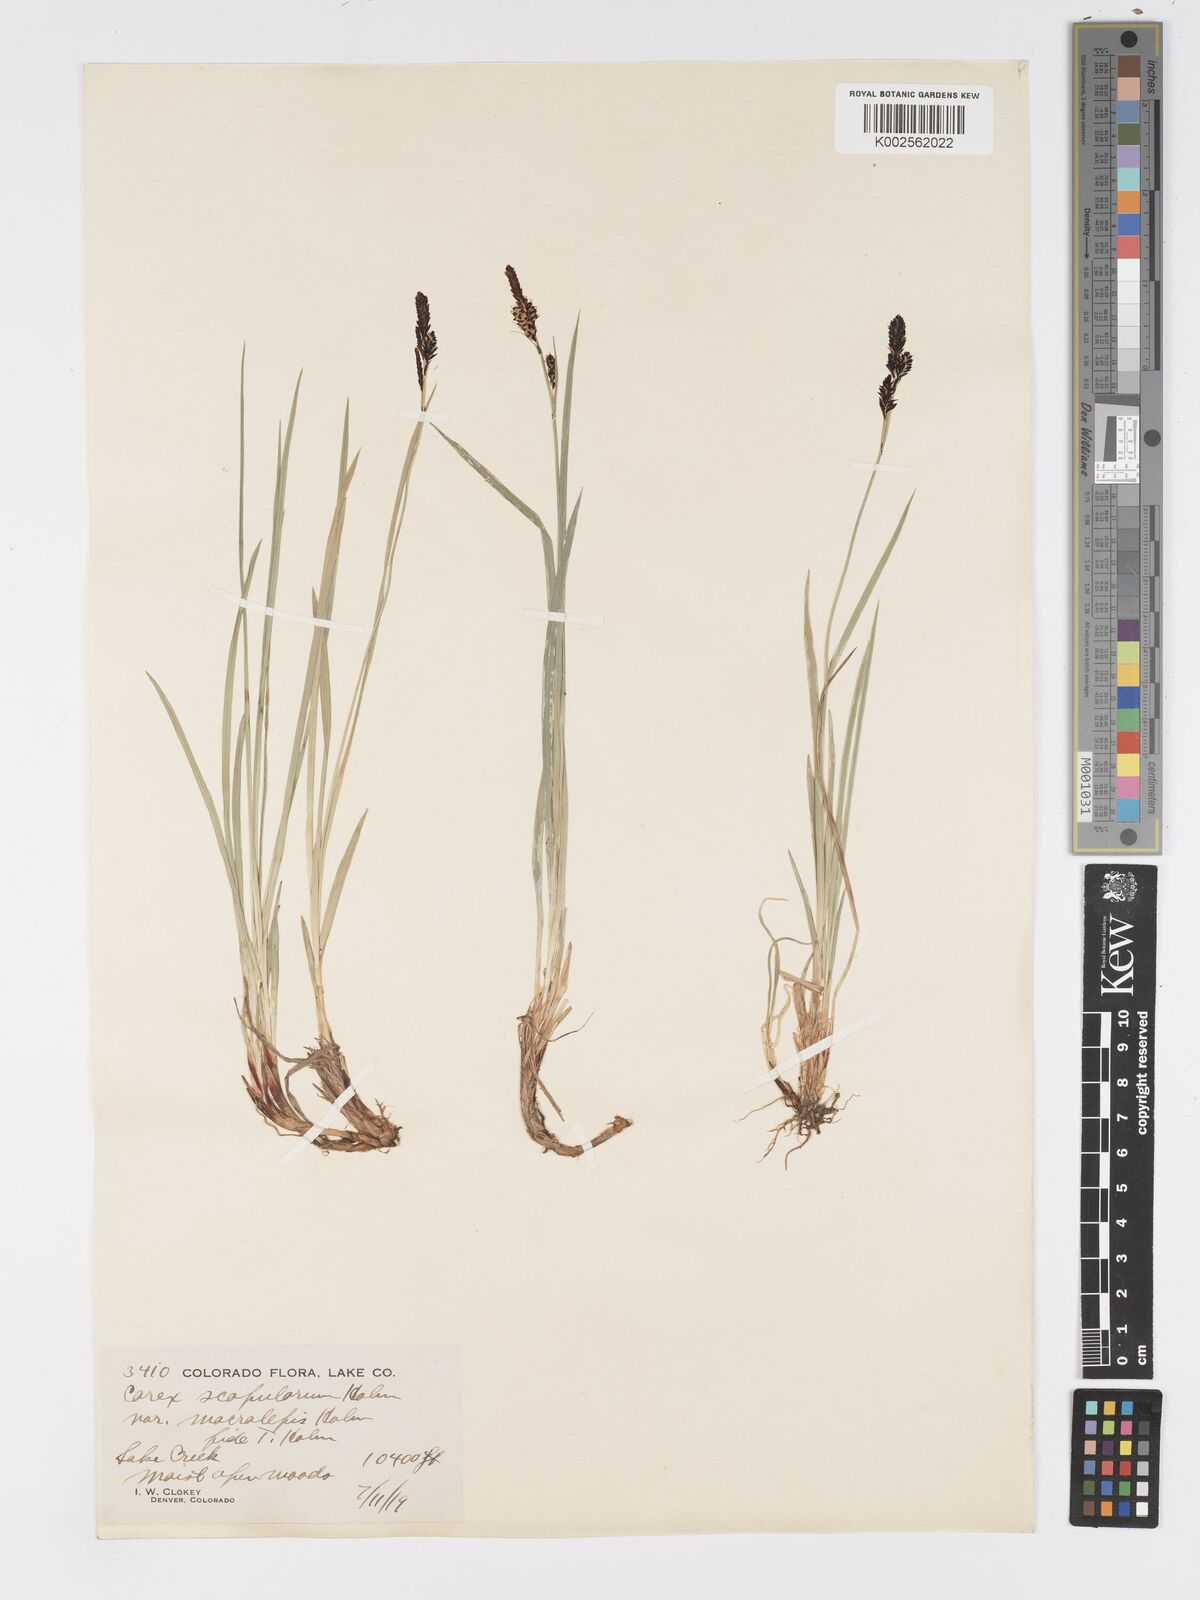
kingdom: Plantae
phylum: Tracheophyta
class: Liliopsida
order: Poales
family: Cyperaceae
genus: Carex
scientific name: Carex scopulorum
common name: Holm's rocky mountain sedge
